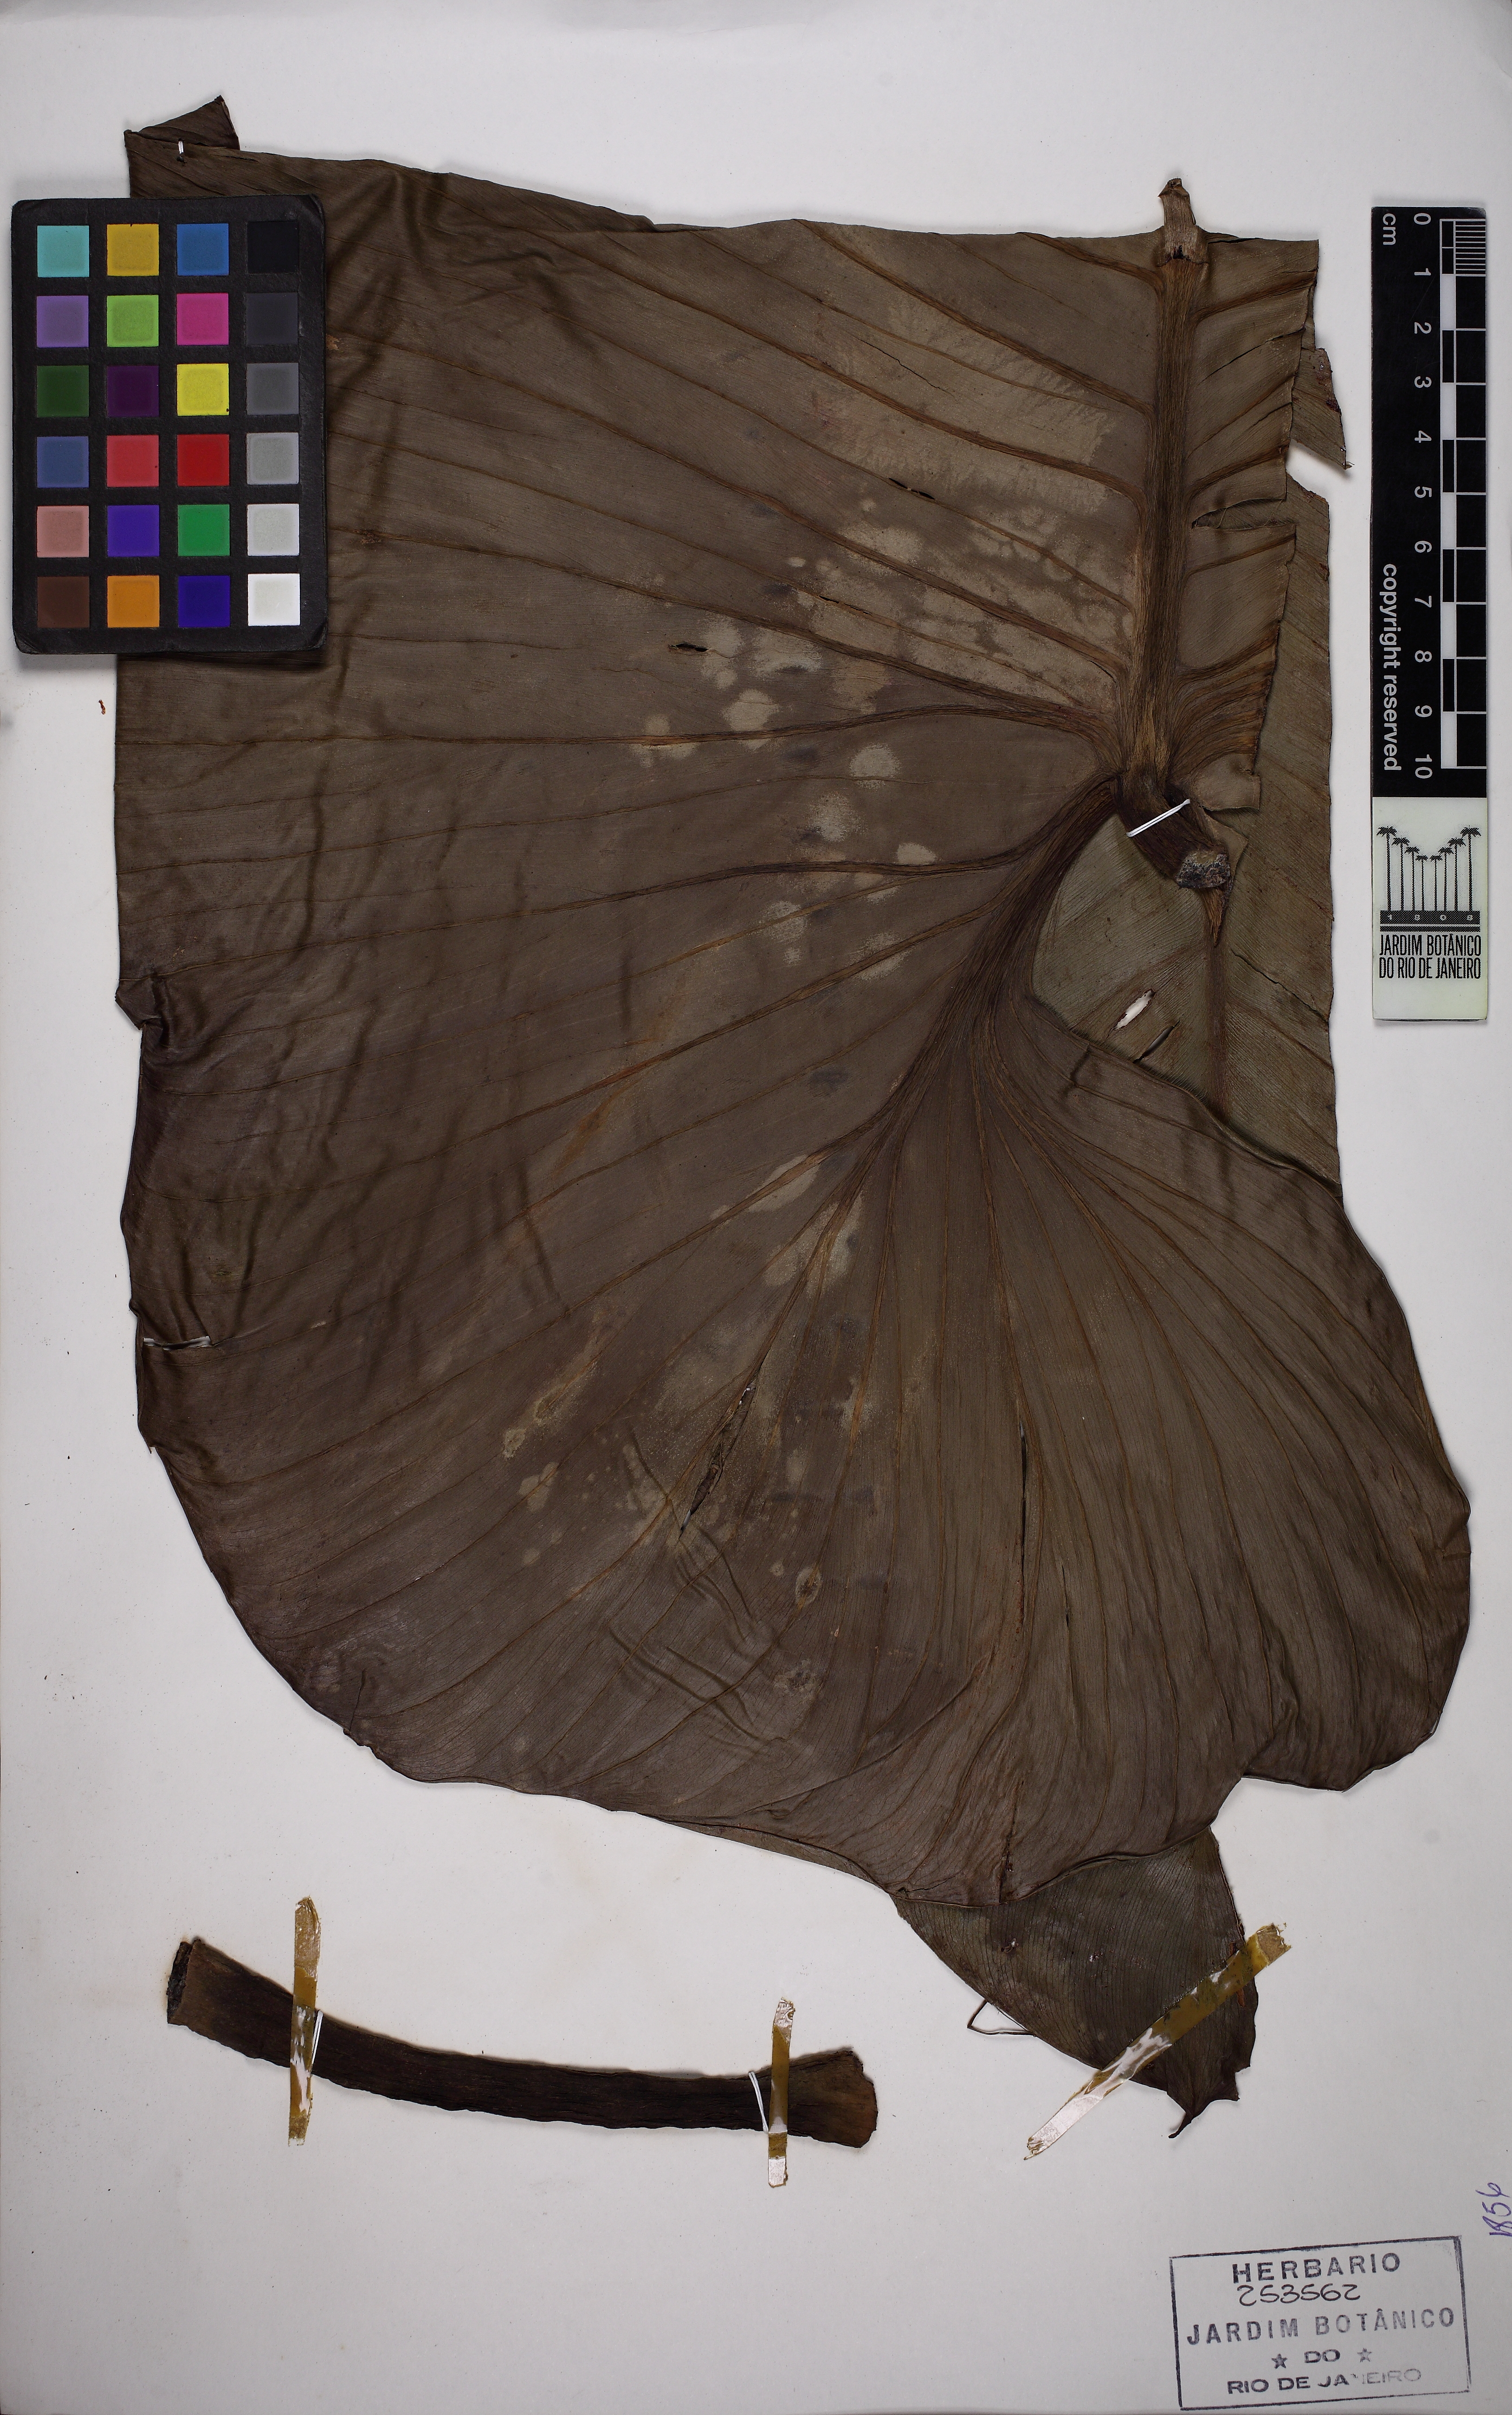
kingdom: Plantae
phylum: Tracheophyta
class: Liliopsida
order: Alismatales
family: Araceae
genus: Philodendron
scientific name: Philodendron altomacaense
